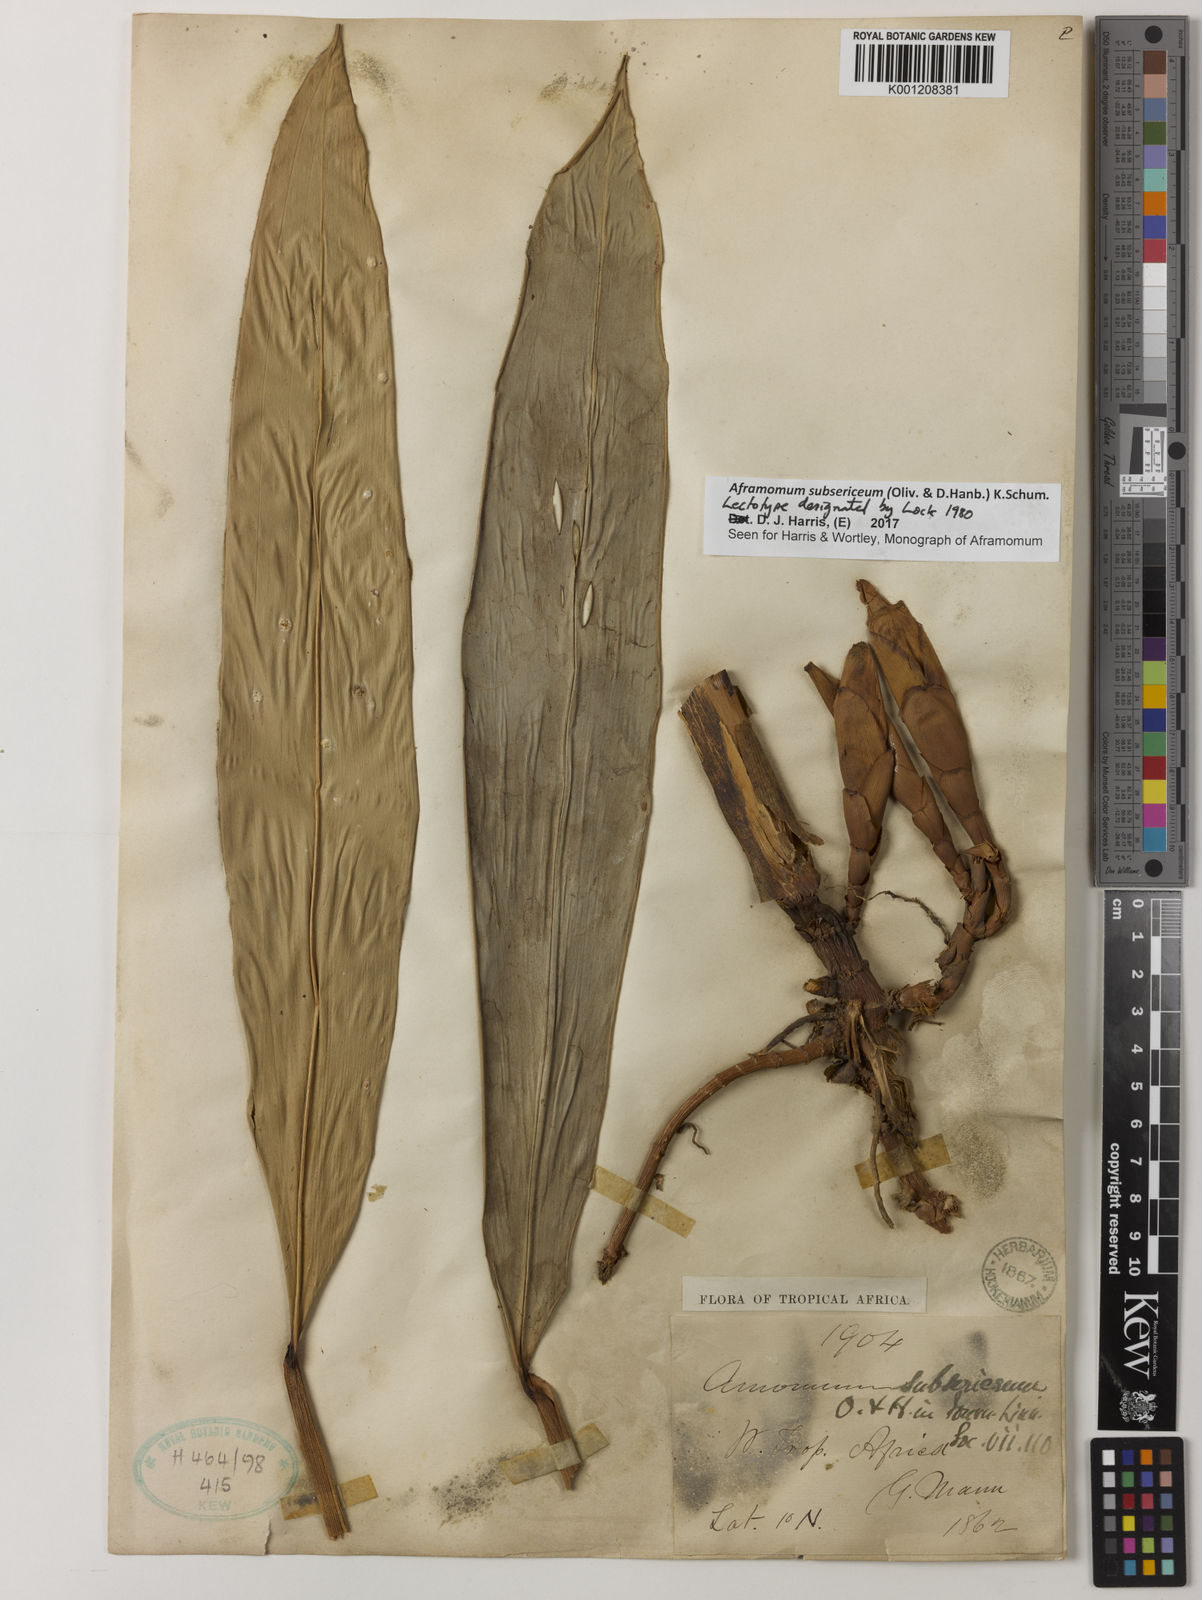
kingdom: Plantae
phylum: Tracheophyta
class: Liliopsida
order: Zingiberales
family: Zingiberaceae
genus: Aframomum
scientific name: Aframomum subsericeum
